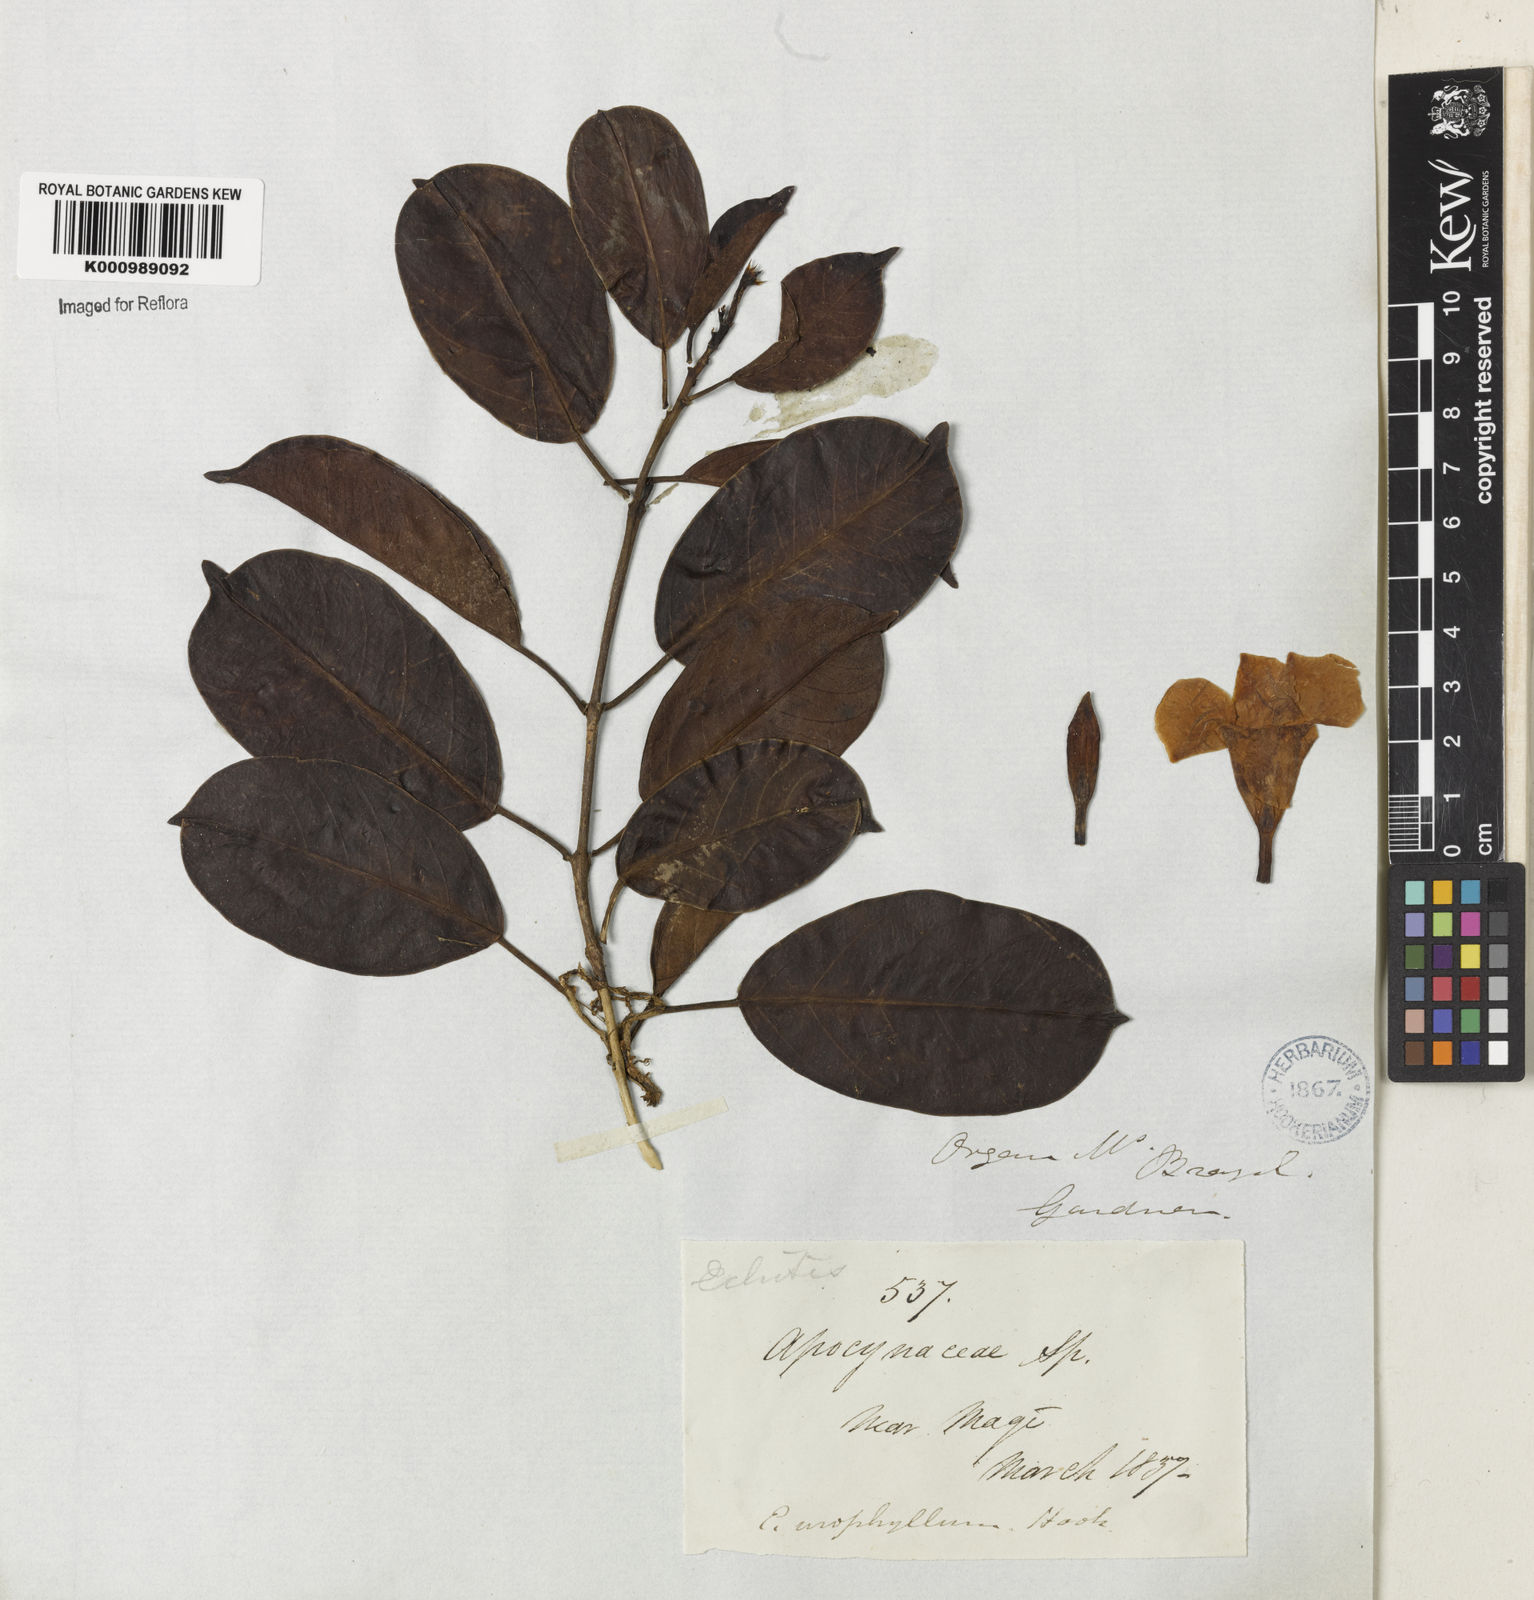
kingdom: Plantae
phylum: Tracheophyta
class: Magnoliopsida
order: Gentianales
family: Apocynaceae
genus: Mandevilla
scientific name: Mandevilla fragrans
